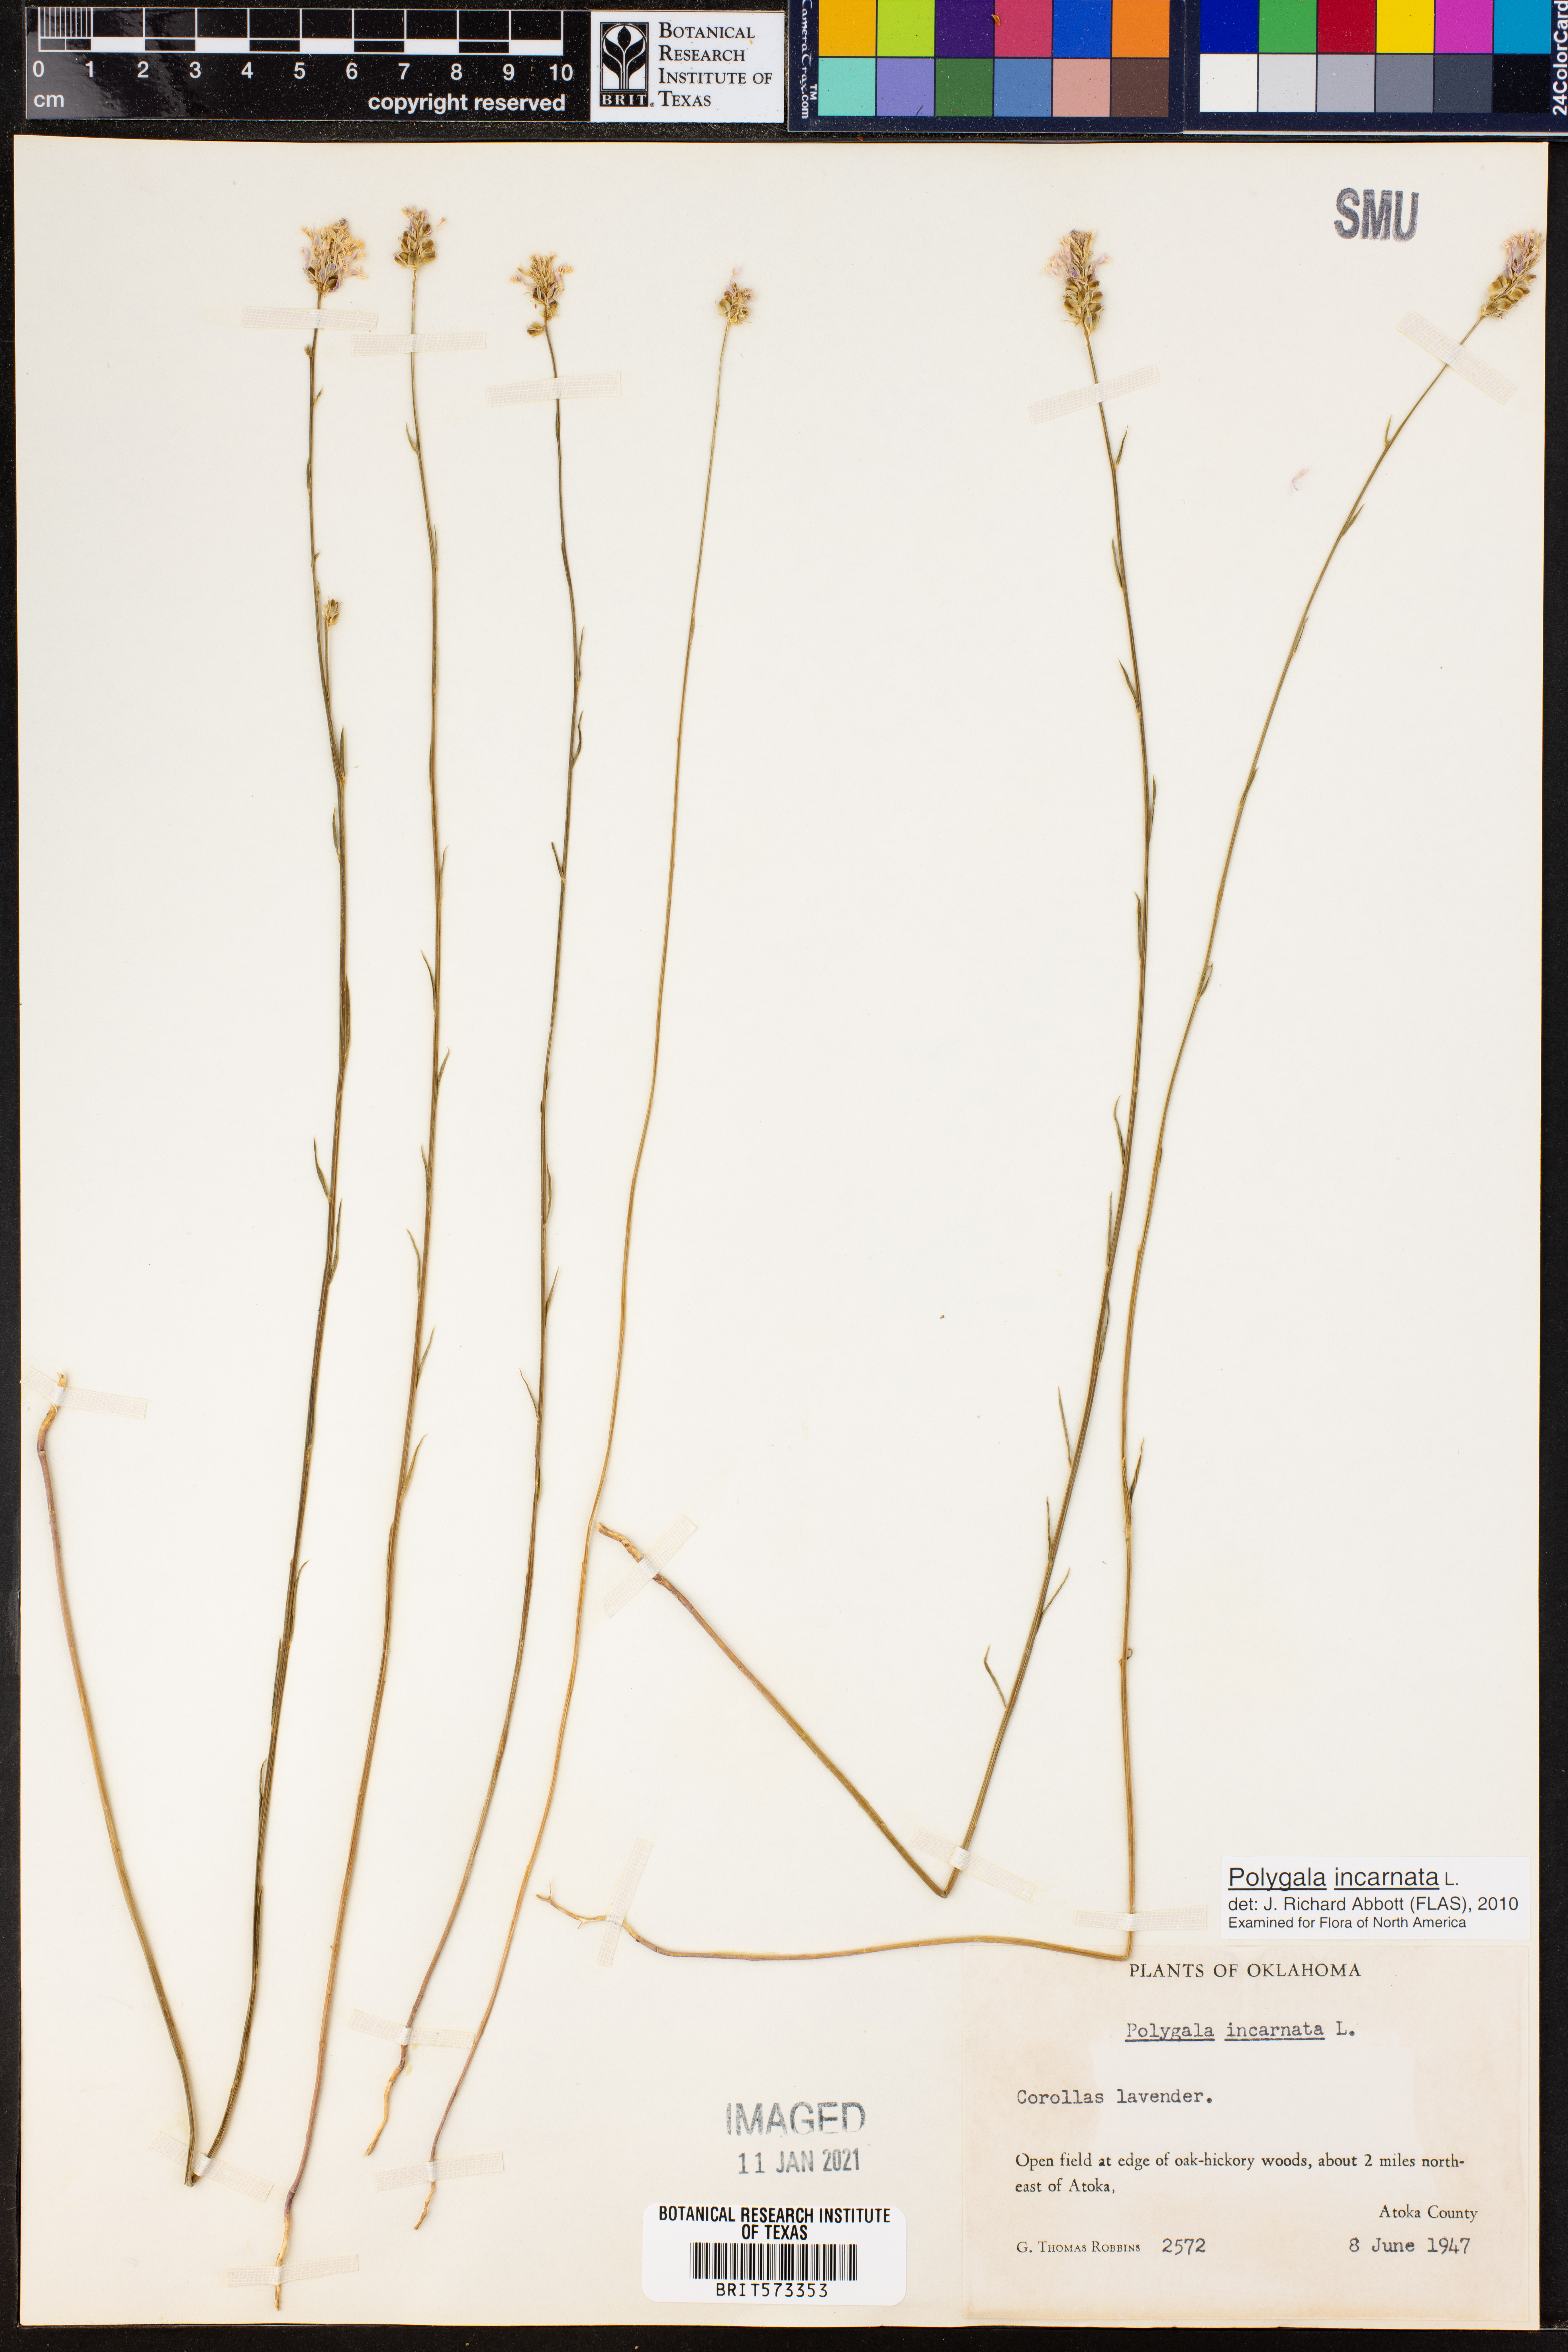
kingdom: Plantae
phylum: Tracheophyta
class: Magnoliopsida
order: Fabales
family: Polygalaceae
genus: Polygala
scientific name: Polygala incarnata
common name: Pink milkwort
